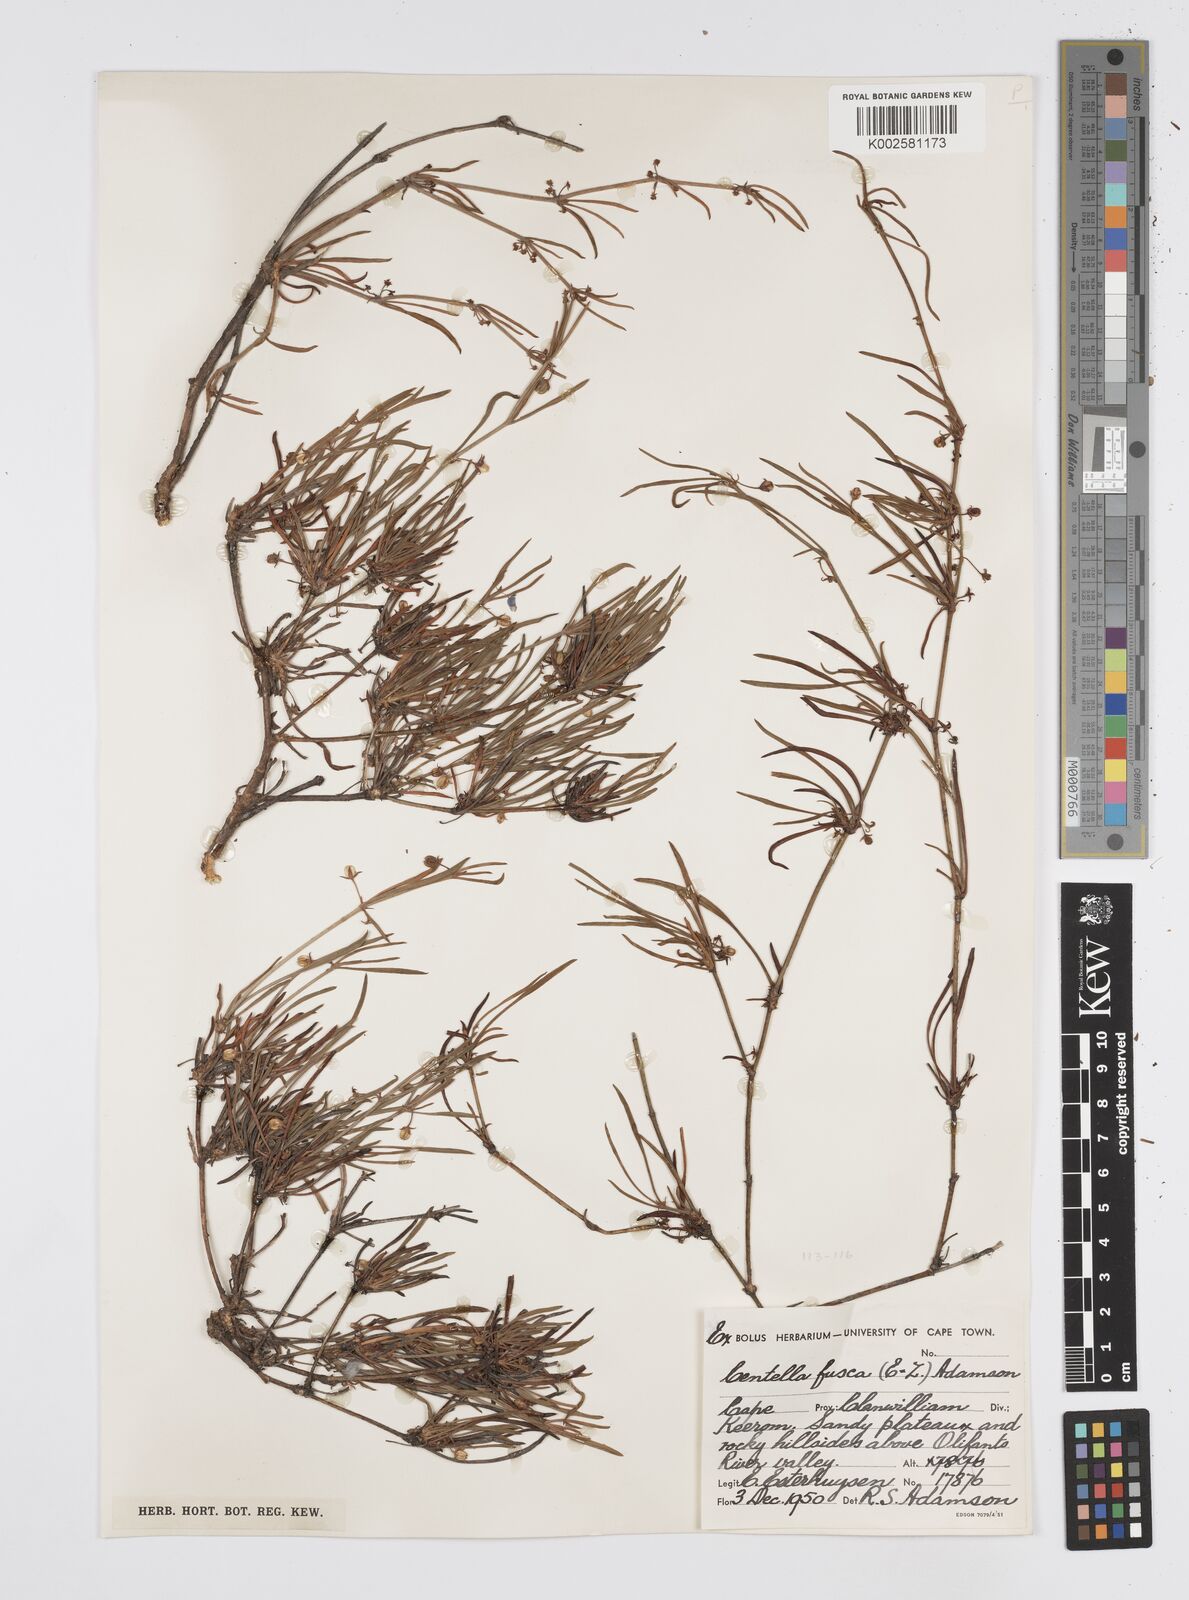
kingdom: Plantae
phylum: Tracheophyta
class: Magnoliopsida
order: Apiales
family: Apiaceae
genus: Centella
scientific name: Centella fusca
